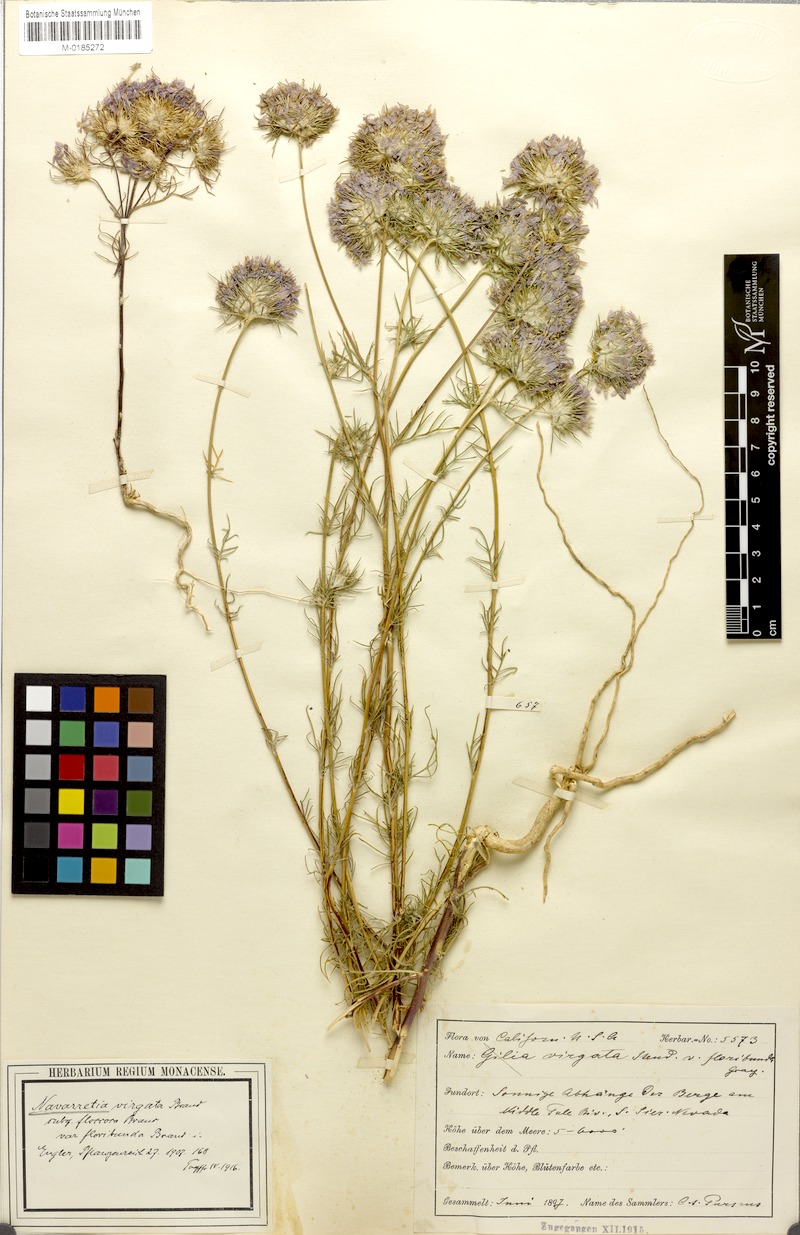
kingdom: Plantae
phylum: Tracheophyta
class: Magnoliopsida
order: Ericales
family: Polemoniaceae
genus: Eriastrum
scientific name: Eriastrum virgatum
